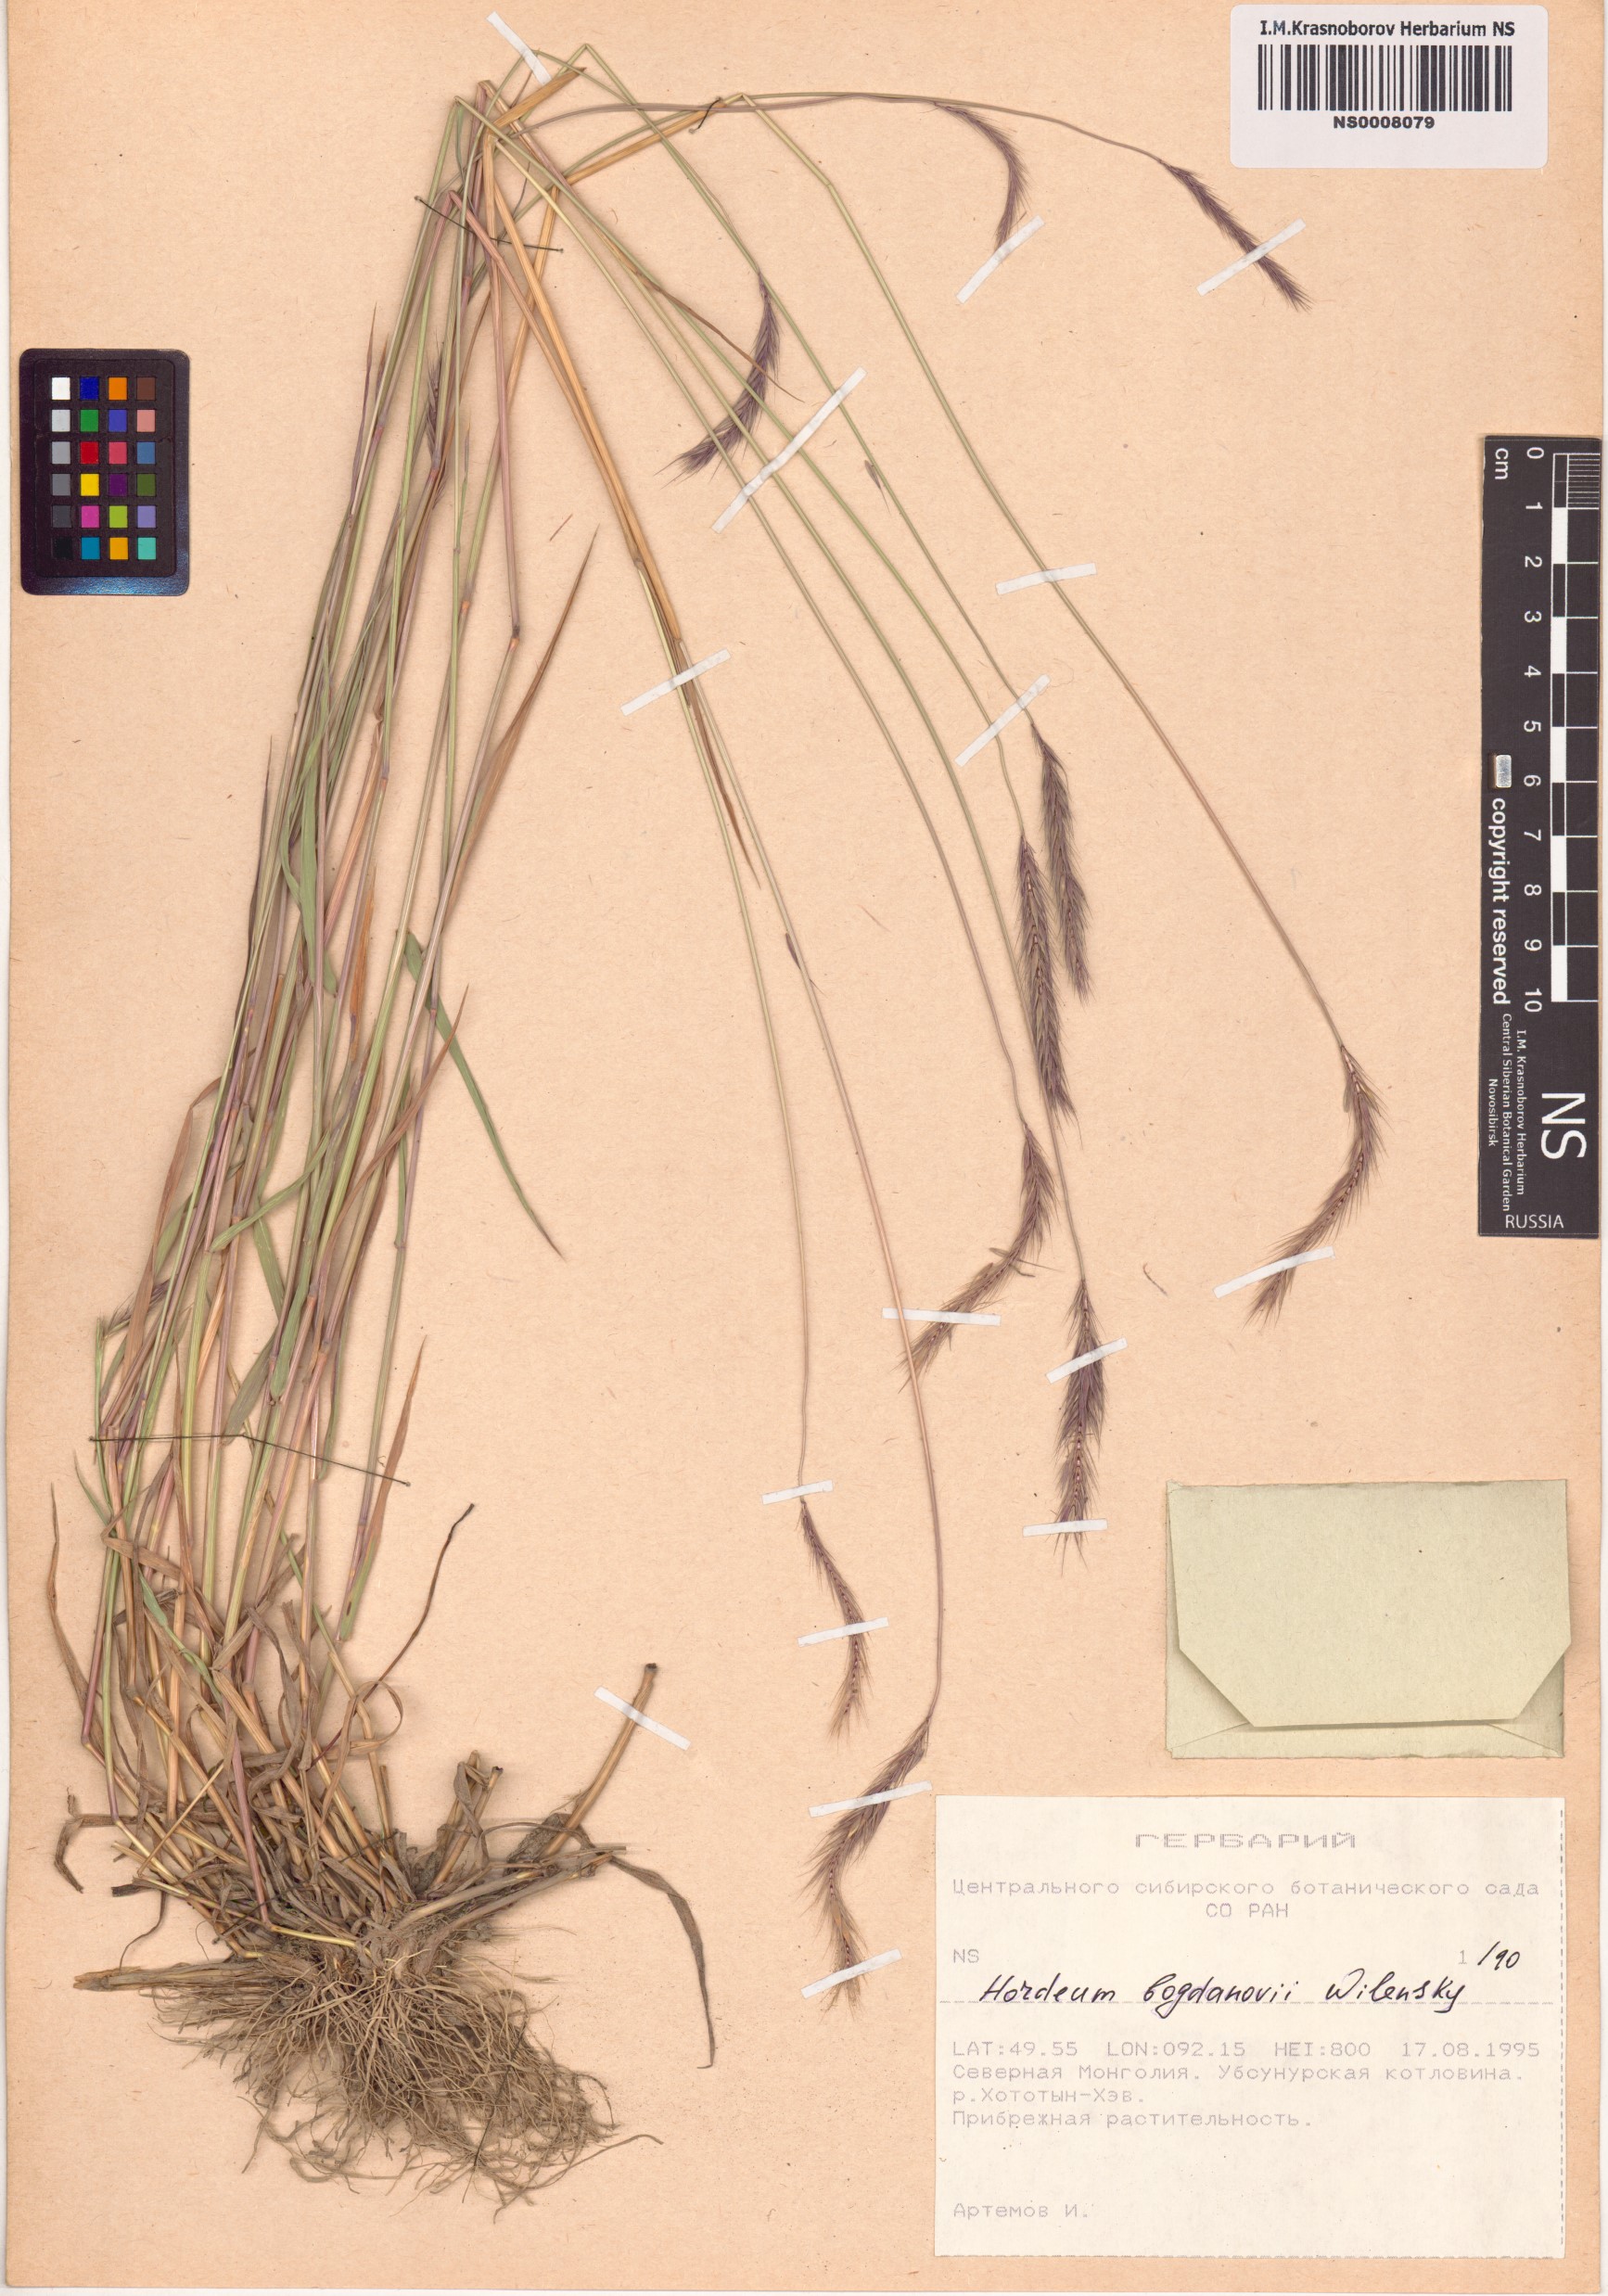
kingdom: Plantae
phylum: Tracheophyta
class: Liliopsida
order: Poales
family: Poaceae
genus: Hordeum
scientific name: Hordeum bogdanii
